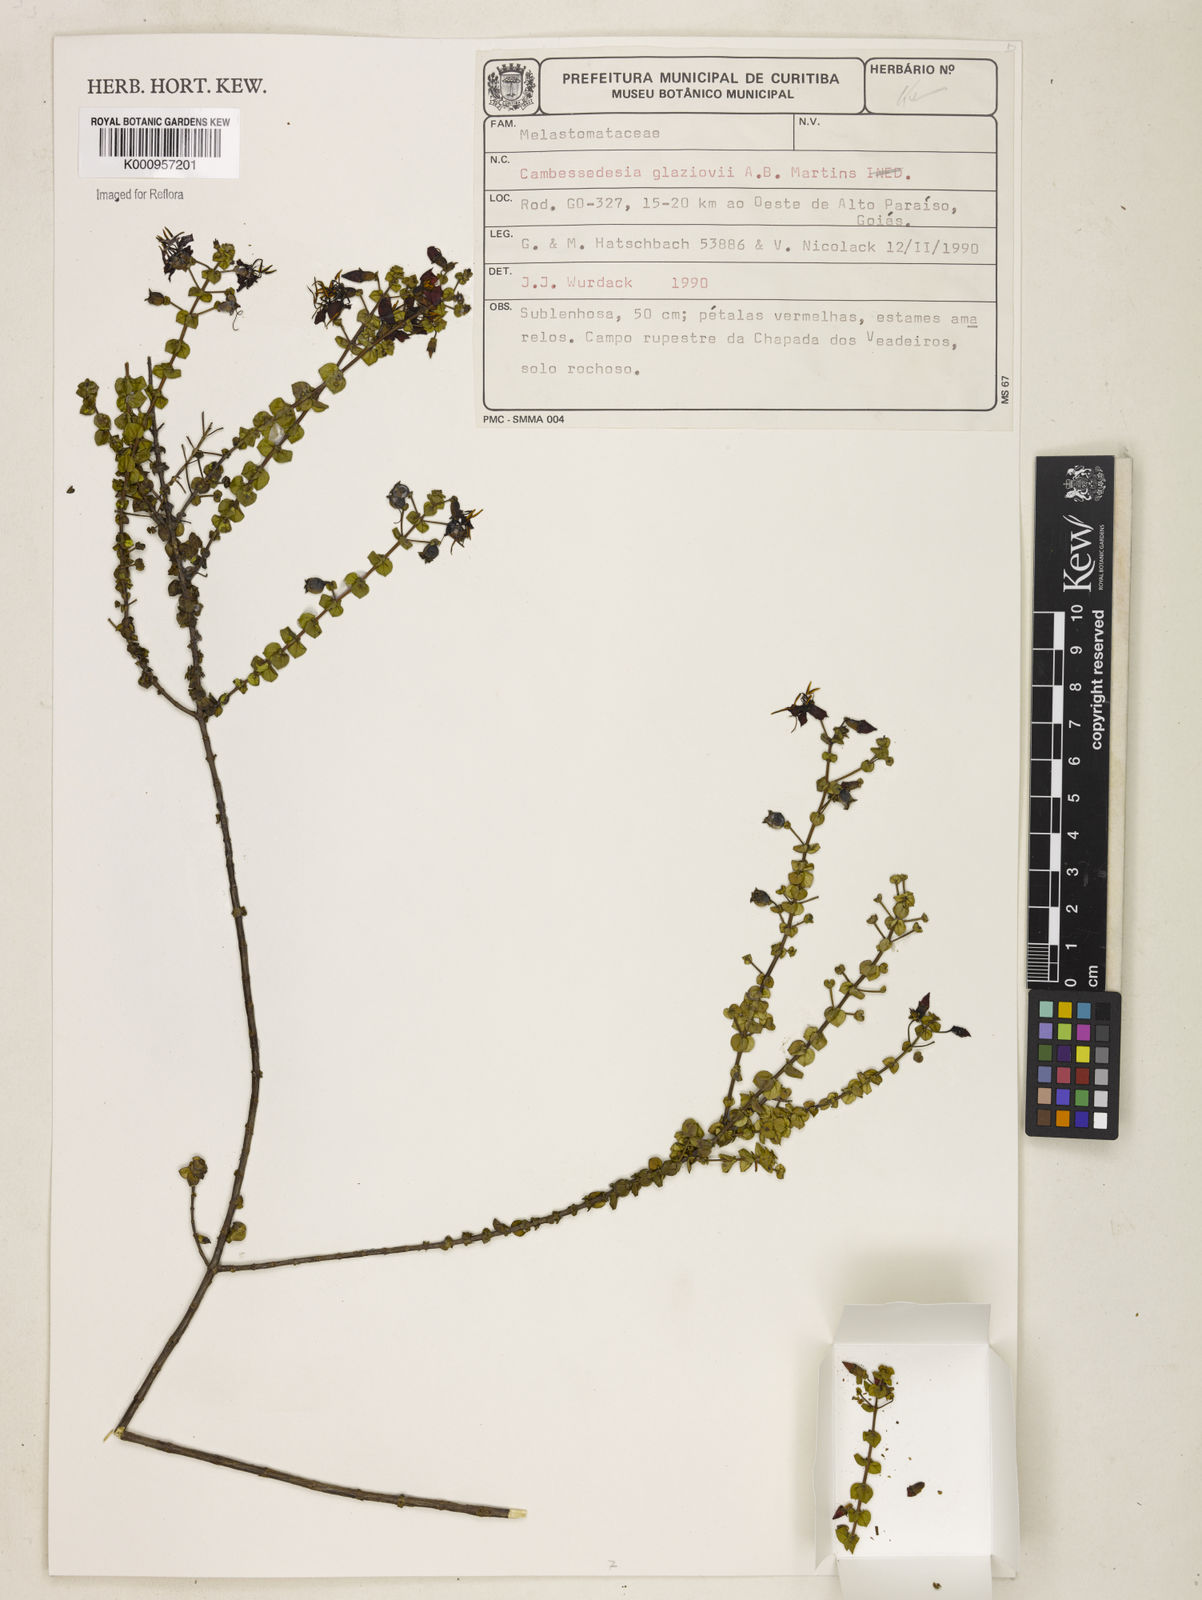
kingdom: Plantae
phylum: Tracheophyta
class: Magnoliopsida
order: Myrtales
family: Melastomataceae
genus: Cambessedesia
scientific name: Cambessedesia glaziovii
